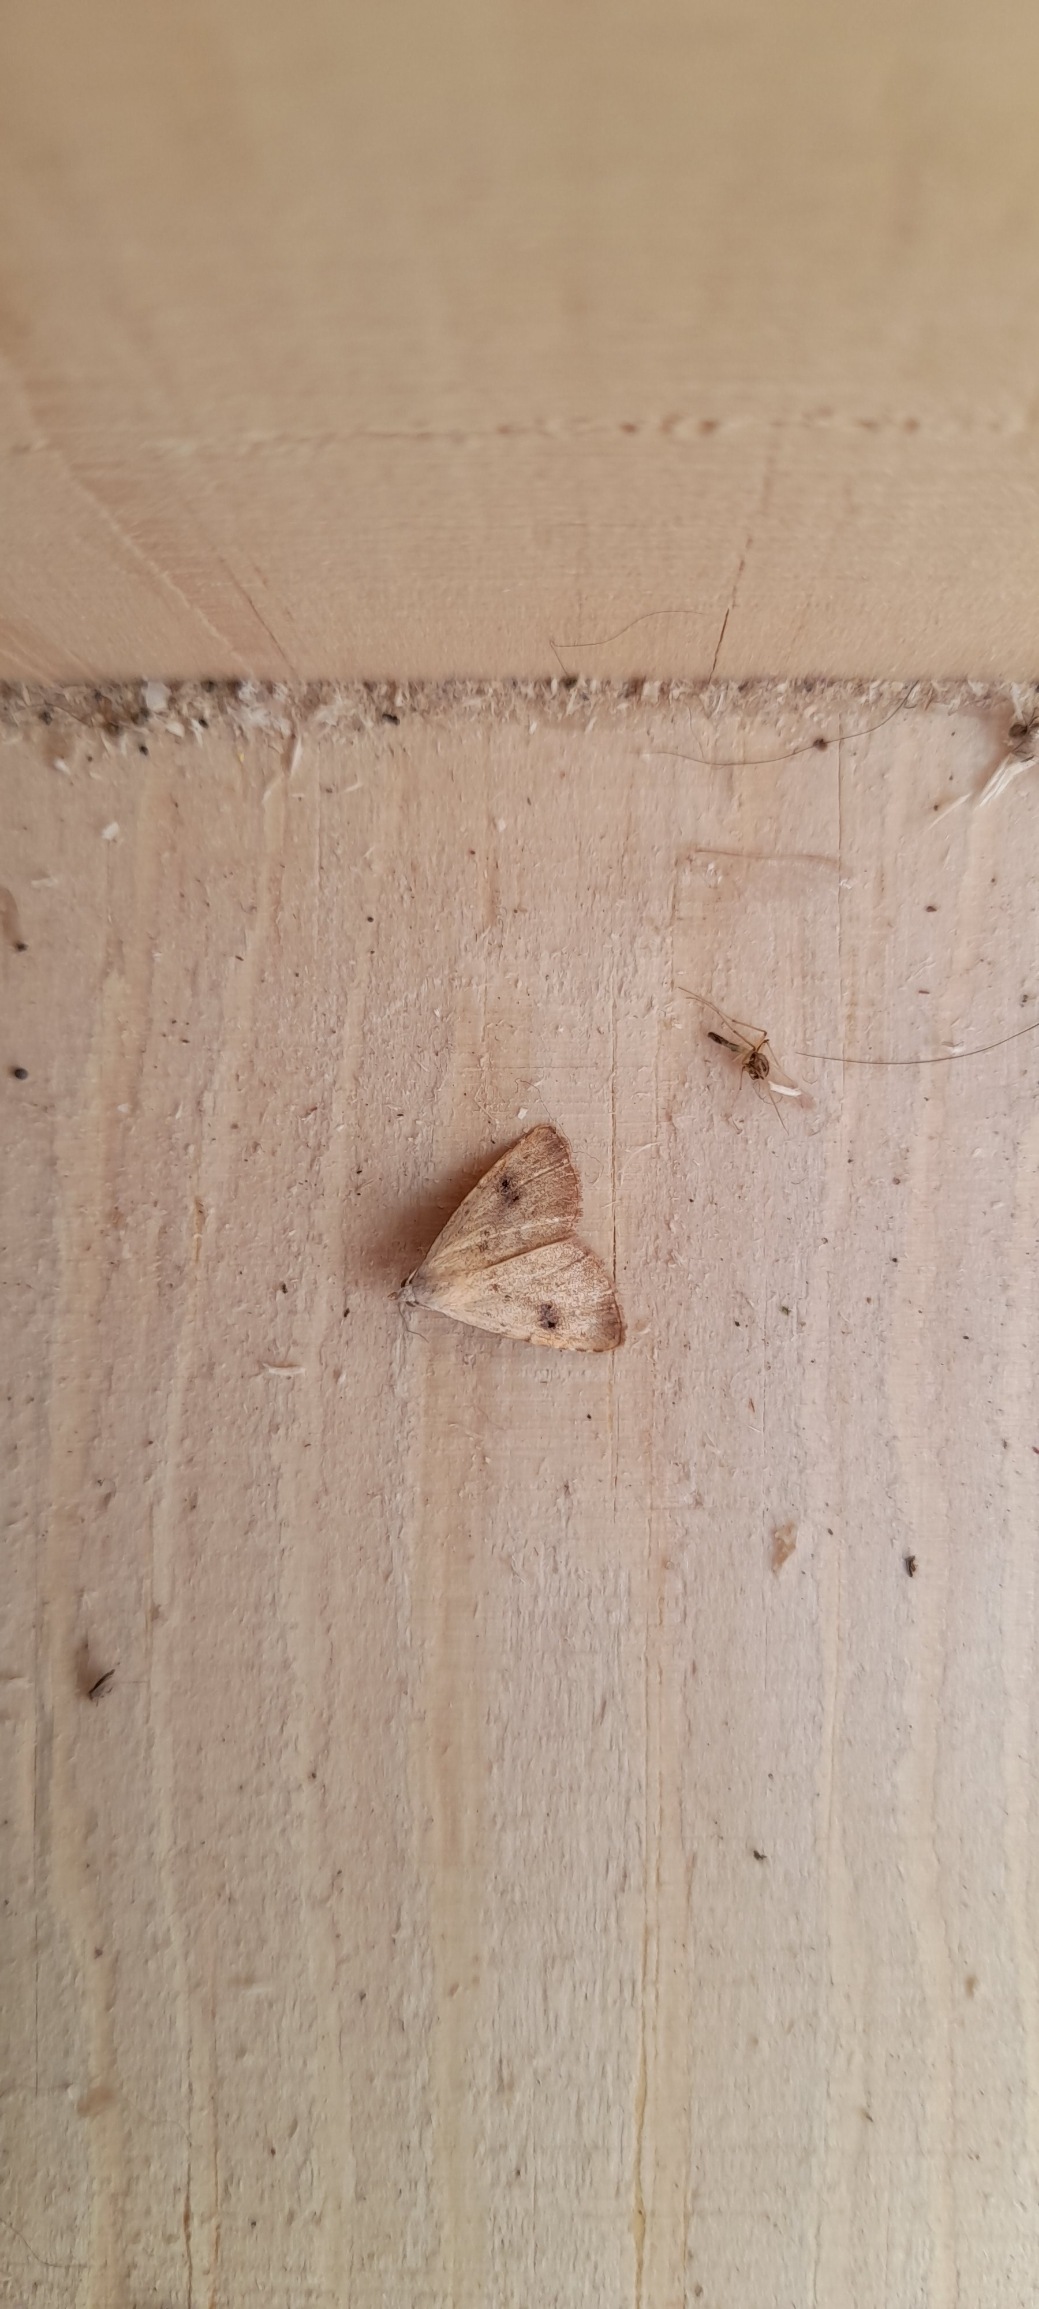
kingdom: Animalia
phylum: Arthropoda
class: Insecta
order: Lepidoptera
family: Erebidae
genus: Rivula
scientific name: Rivula sericealis
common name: Lille å-ugle
